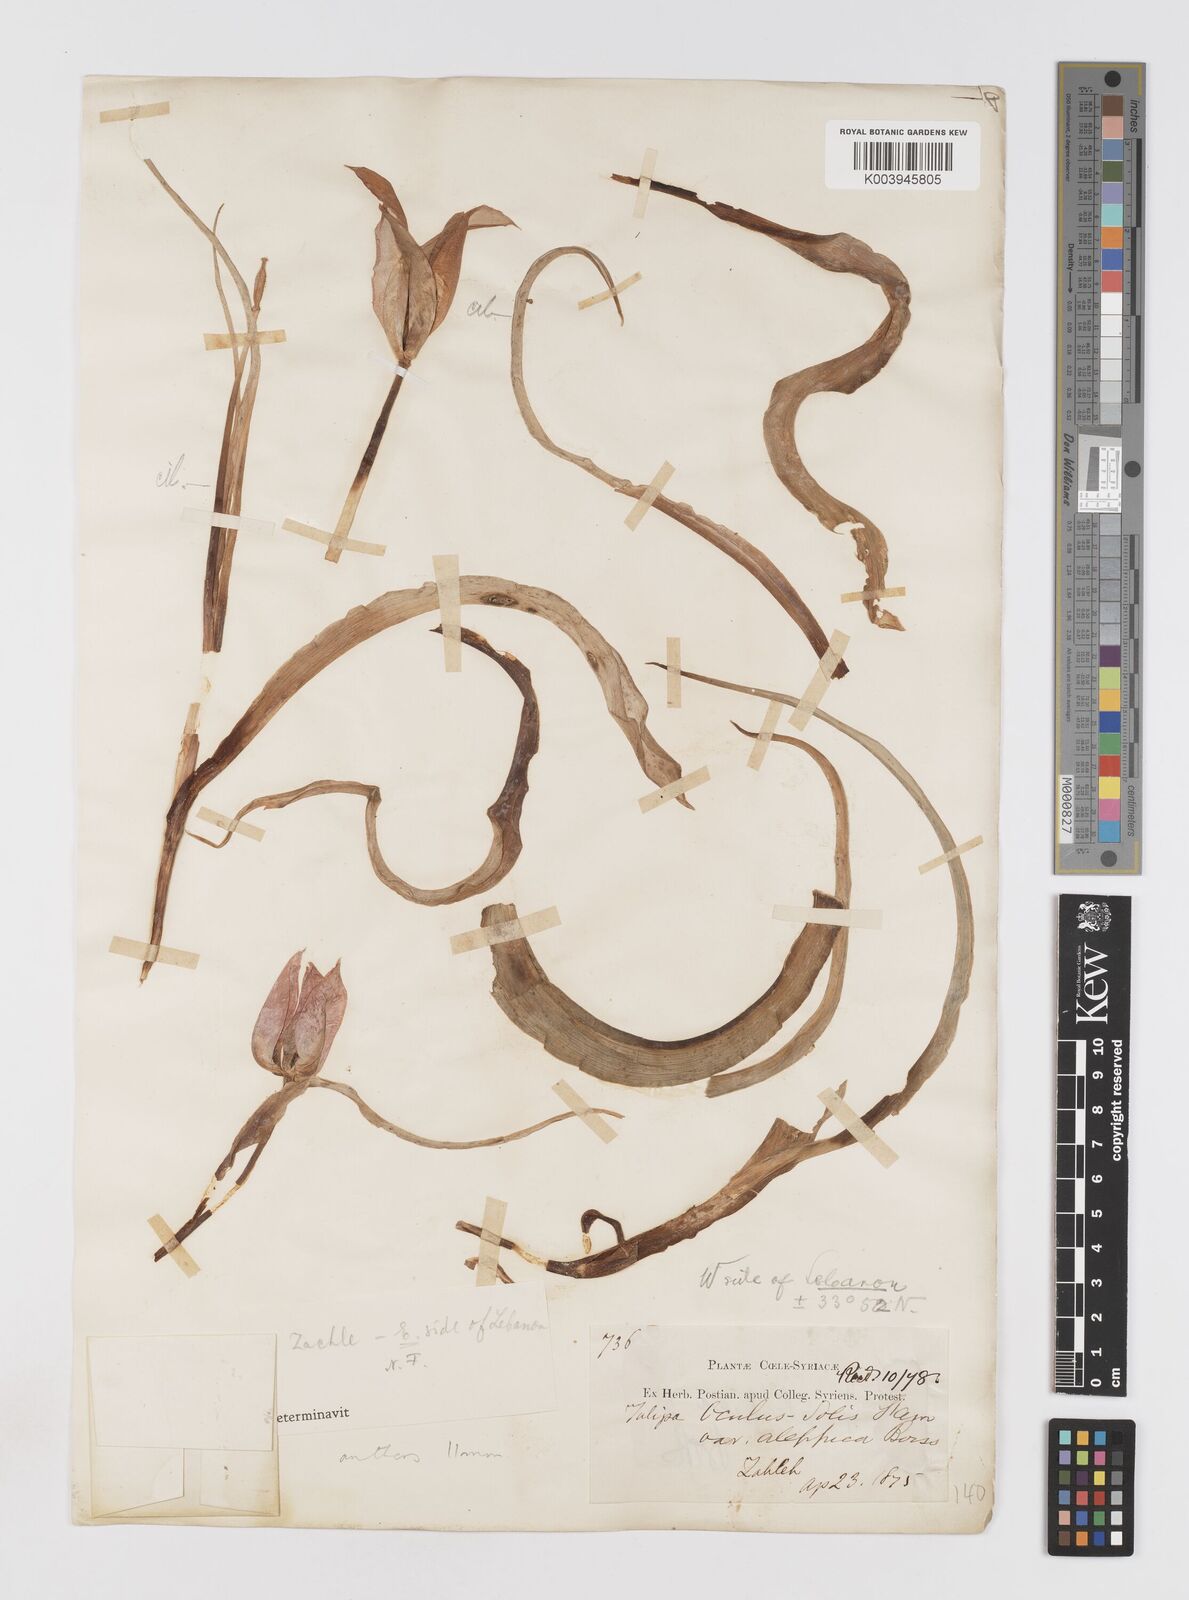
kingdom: Plantae
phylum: Tracheophyta
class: Liliopsida
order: Liliales
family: Liliaceae
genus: Tulipa
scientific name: Tulipa aleppensis
